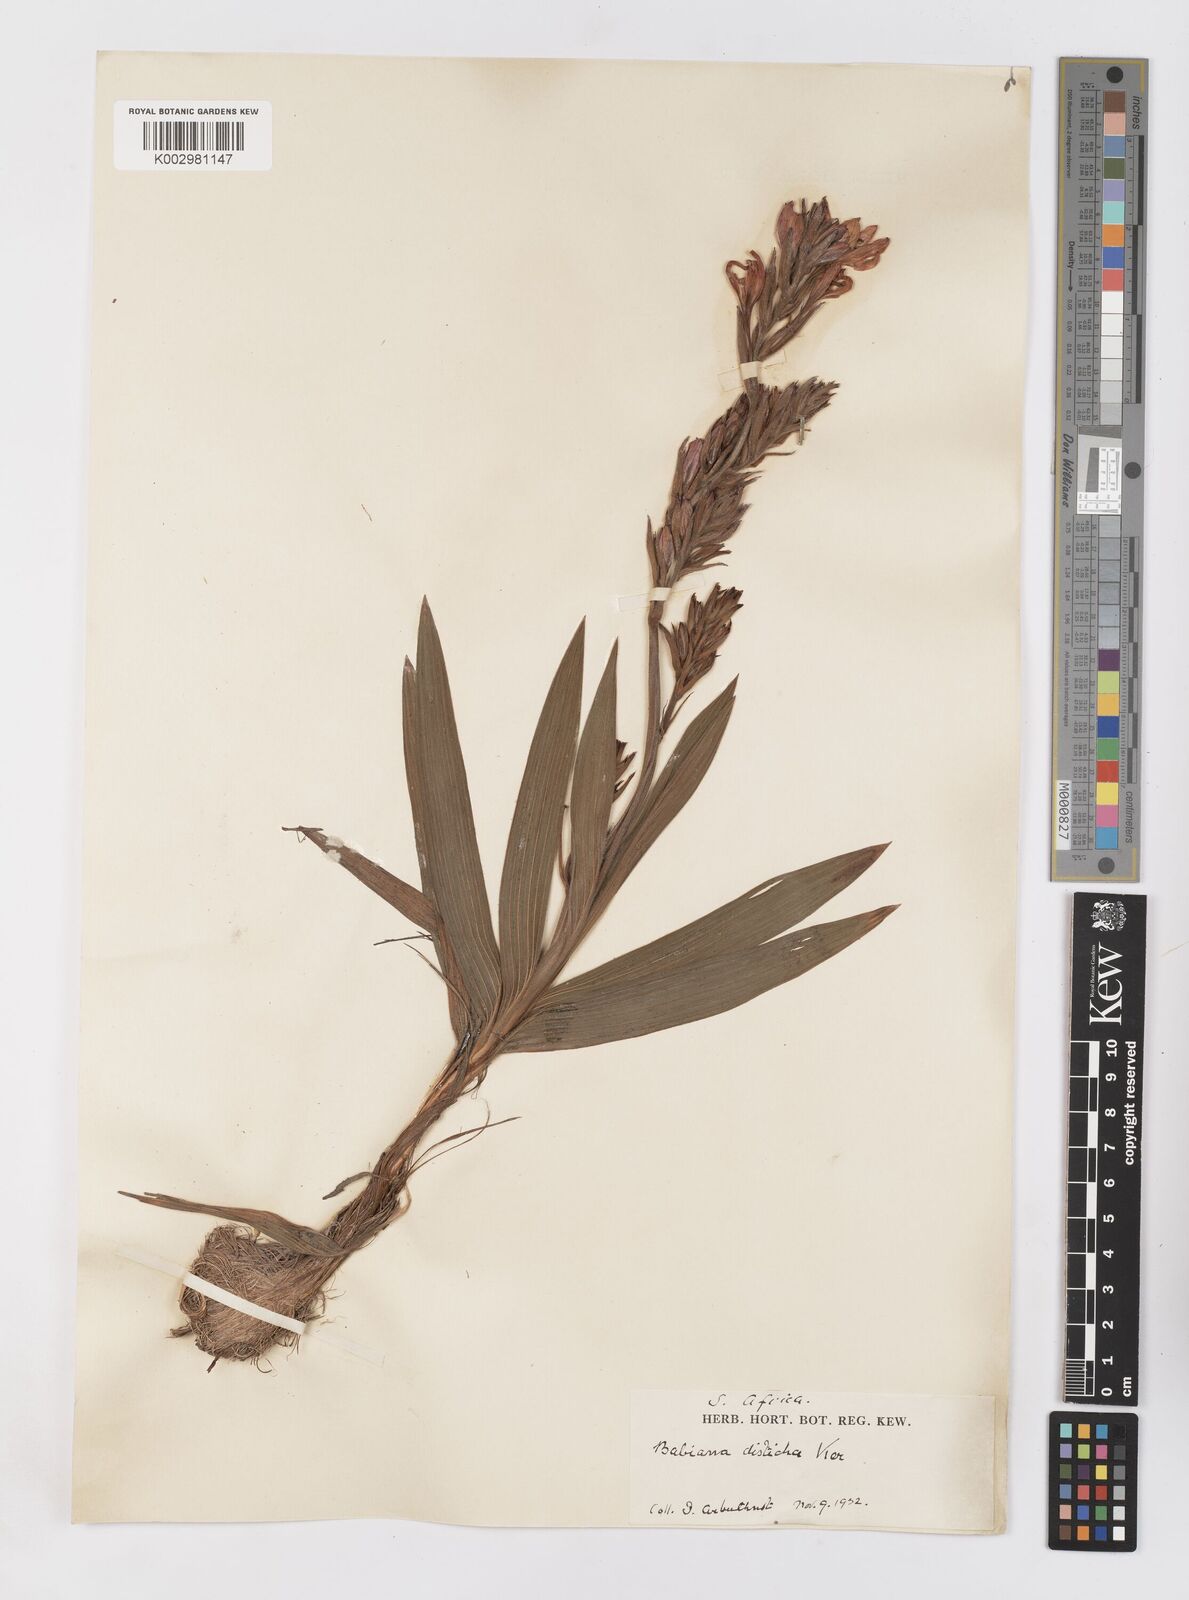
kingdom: Plantae
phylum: Tracheophyta
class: Liliopsida
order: Asparagales
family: Iridaceae
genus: Babiana
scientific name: Babiana
